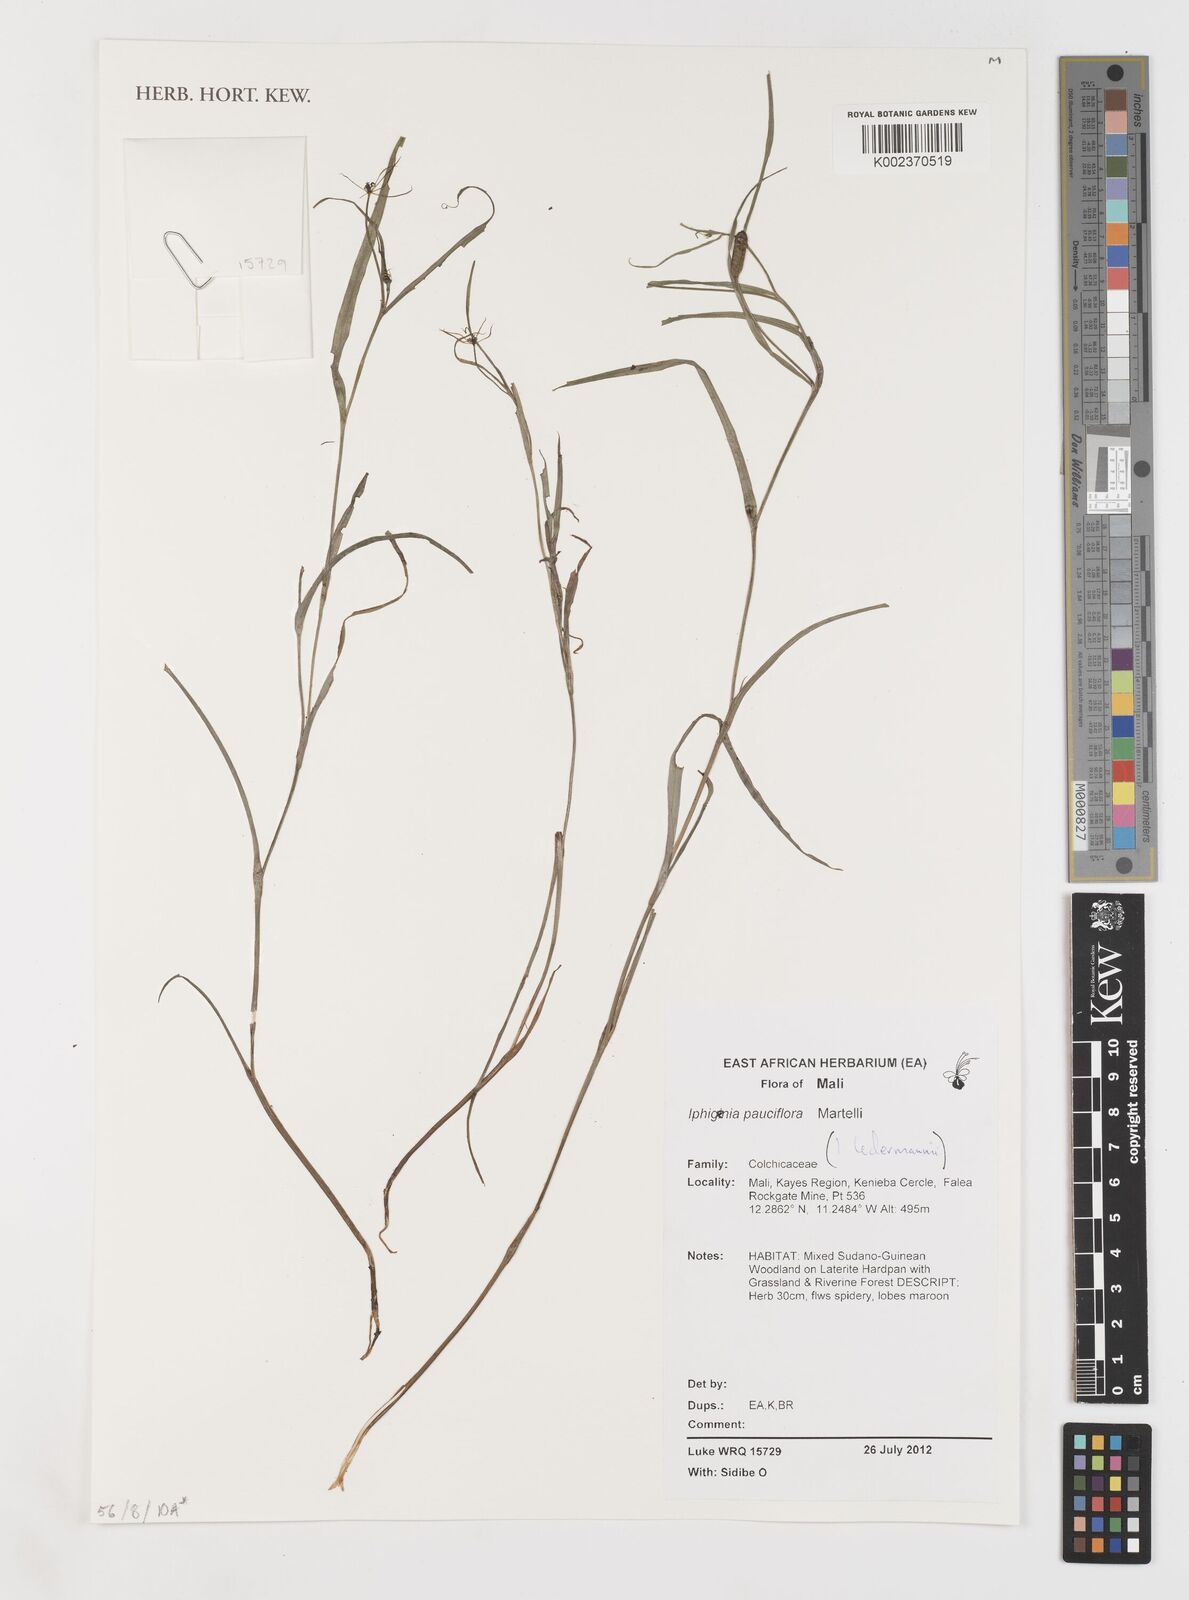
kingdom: Plantae
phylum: Tracheophyta
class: Liliopsida
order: Liliales
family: Colchicaceae
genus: Iphigenia
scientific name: Iphigenia pauciflora
